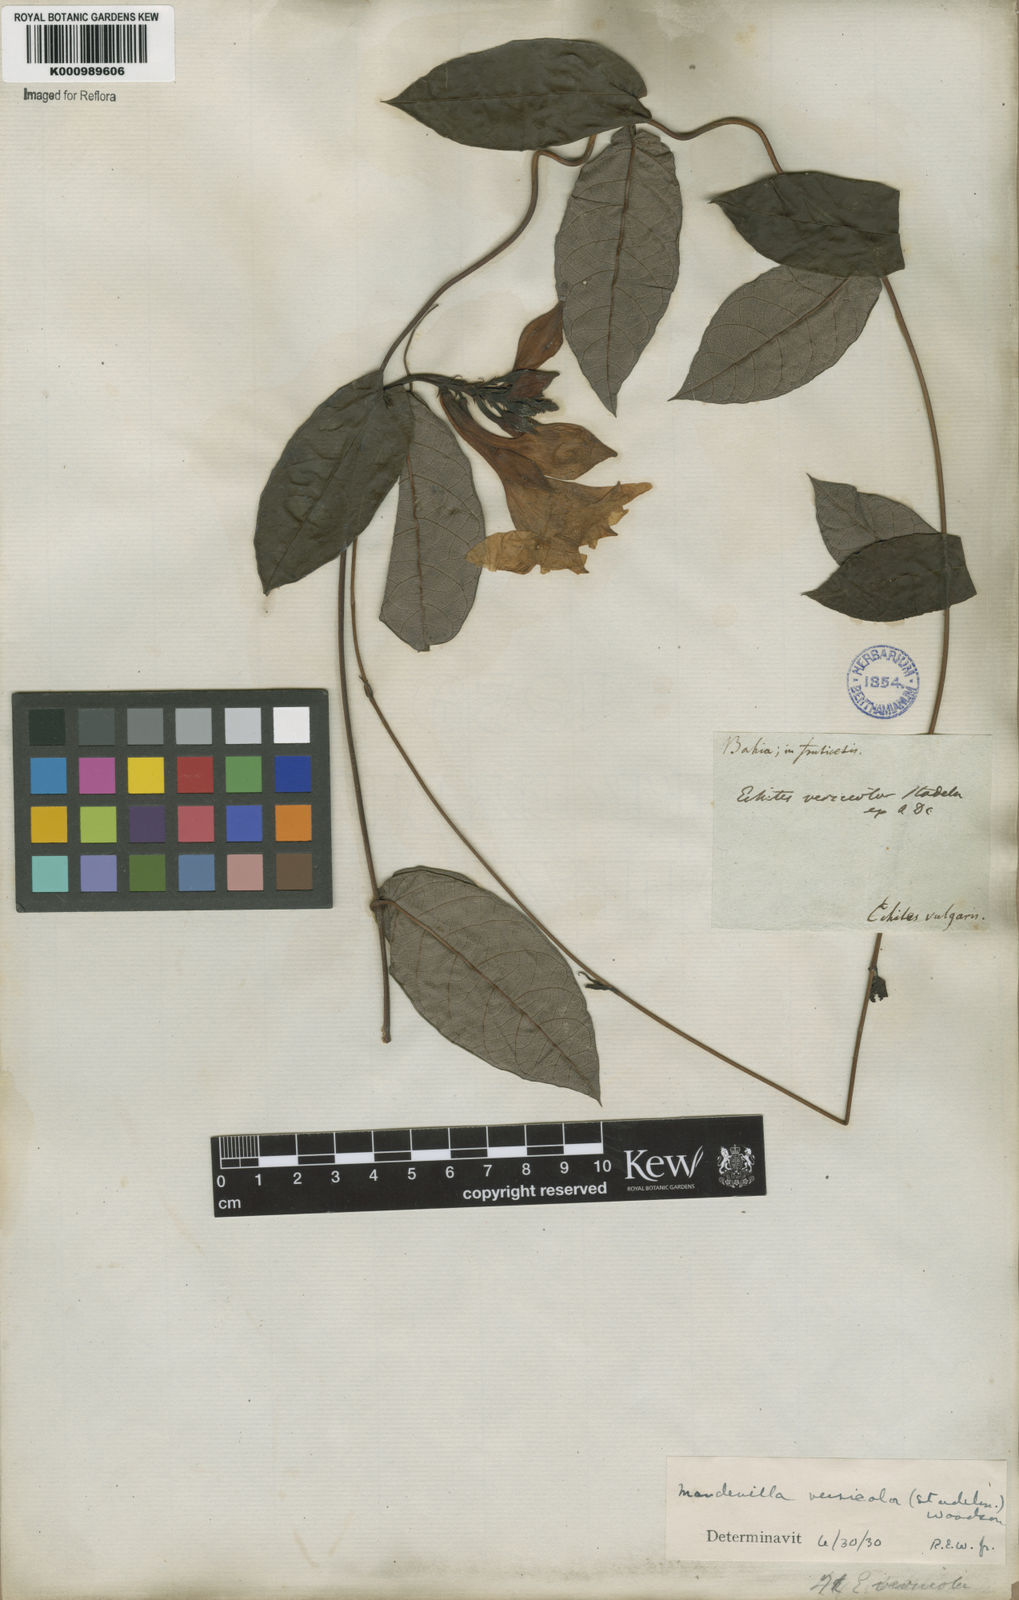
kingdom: Plantae
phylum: Tracheophyta
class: Magnoliopsida
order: Gentianales
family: Apocynaceae
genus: Mandevilla
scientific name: Mandevilla scabra
